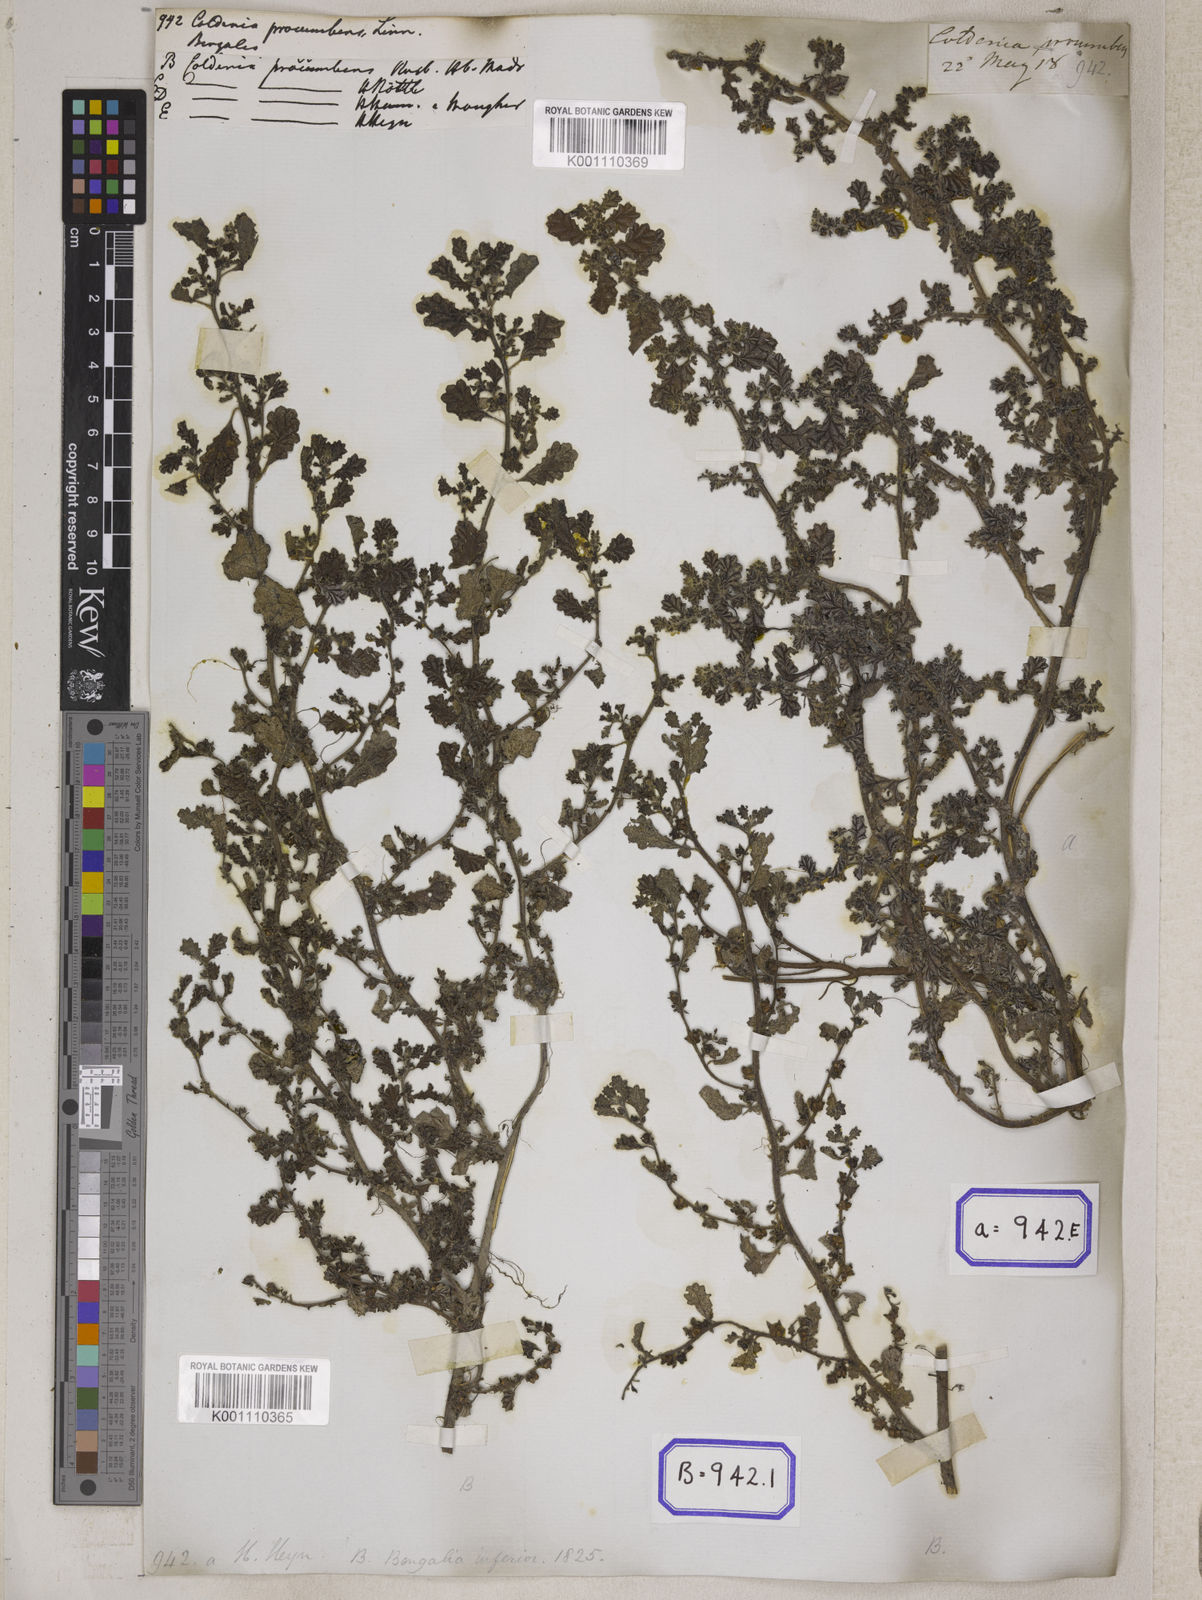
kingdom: Plantae
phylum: Tracheophyta
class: Magnoliopsida
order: Boraginales
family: Coldeniaceae
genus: Coldenia
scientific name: Coldenia procumbens
